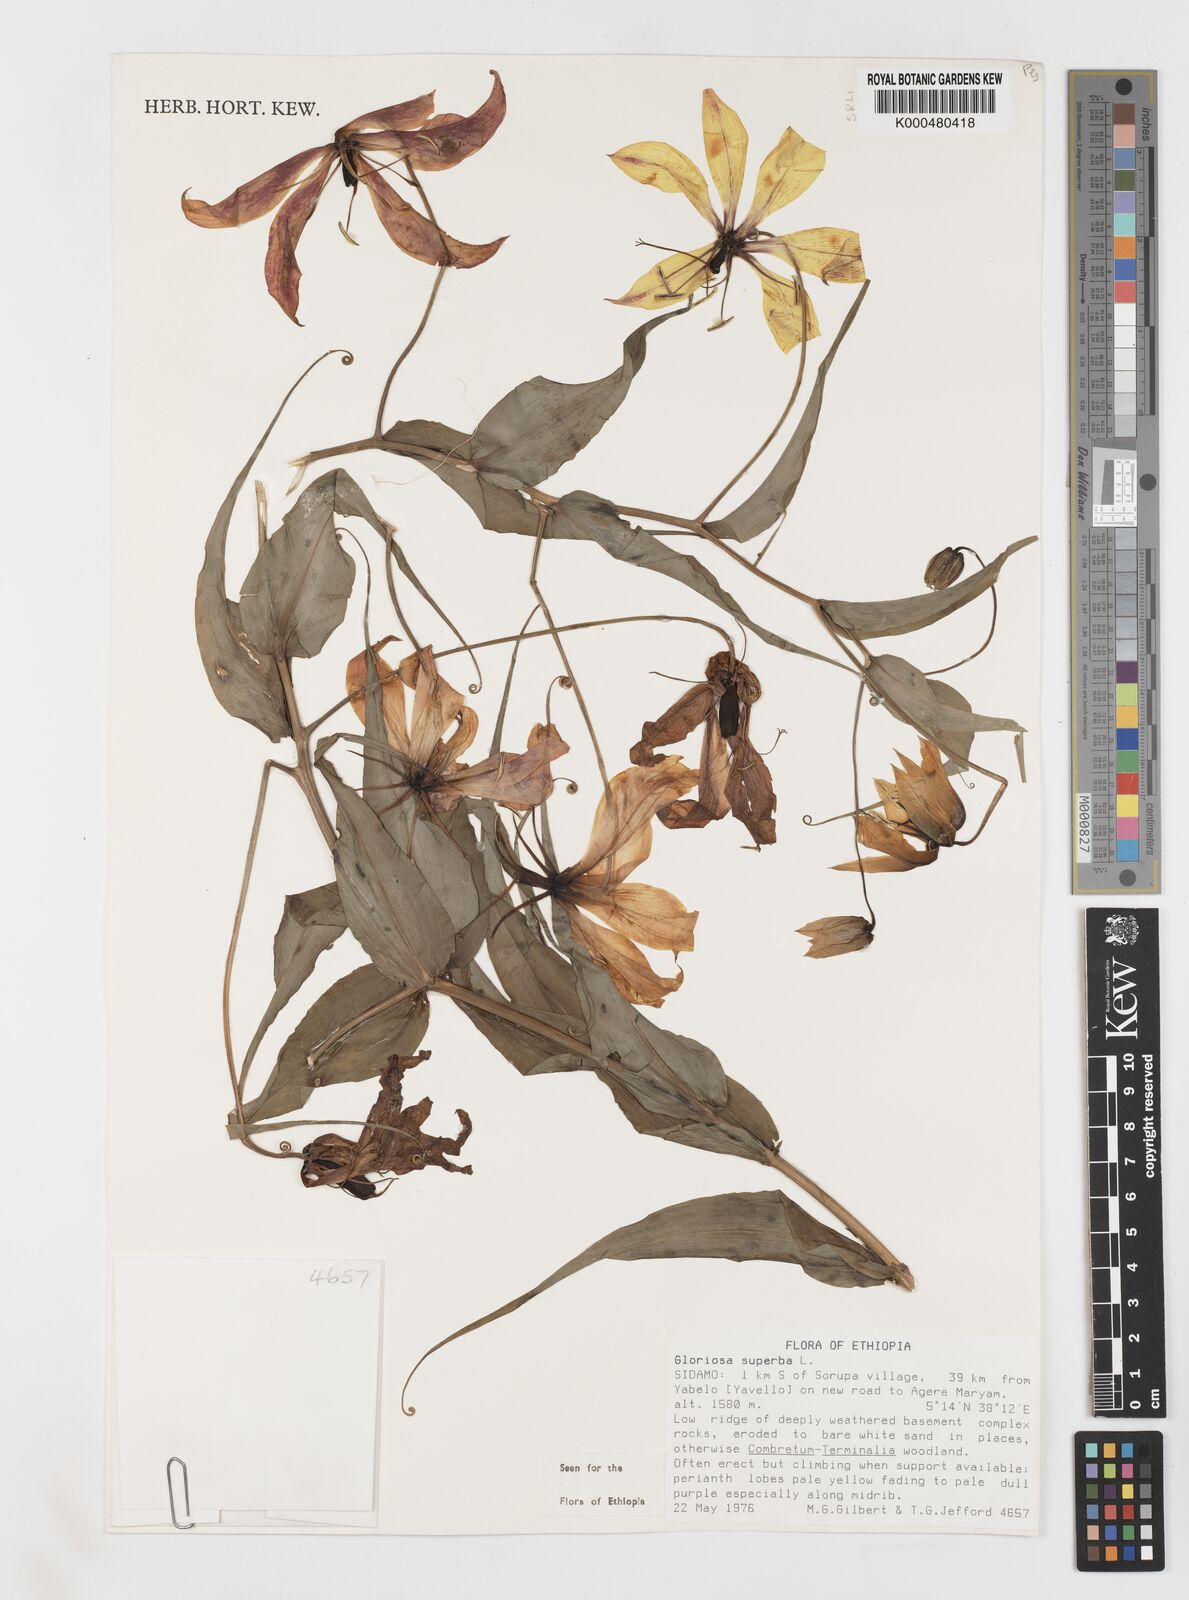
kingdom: Plantae
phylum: Tracheophyta
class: Liliopsida
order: Liliales
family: Colchicaceae
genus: Gloriosa
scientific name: Gloriosa superba
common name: Flame lily
